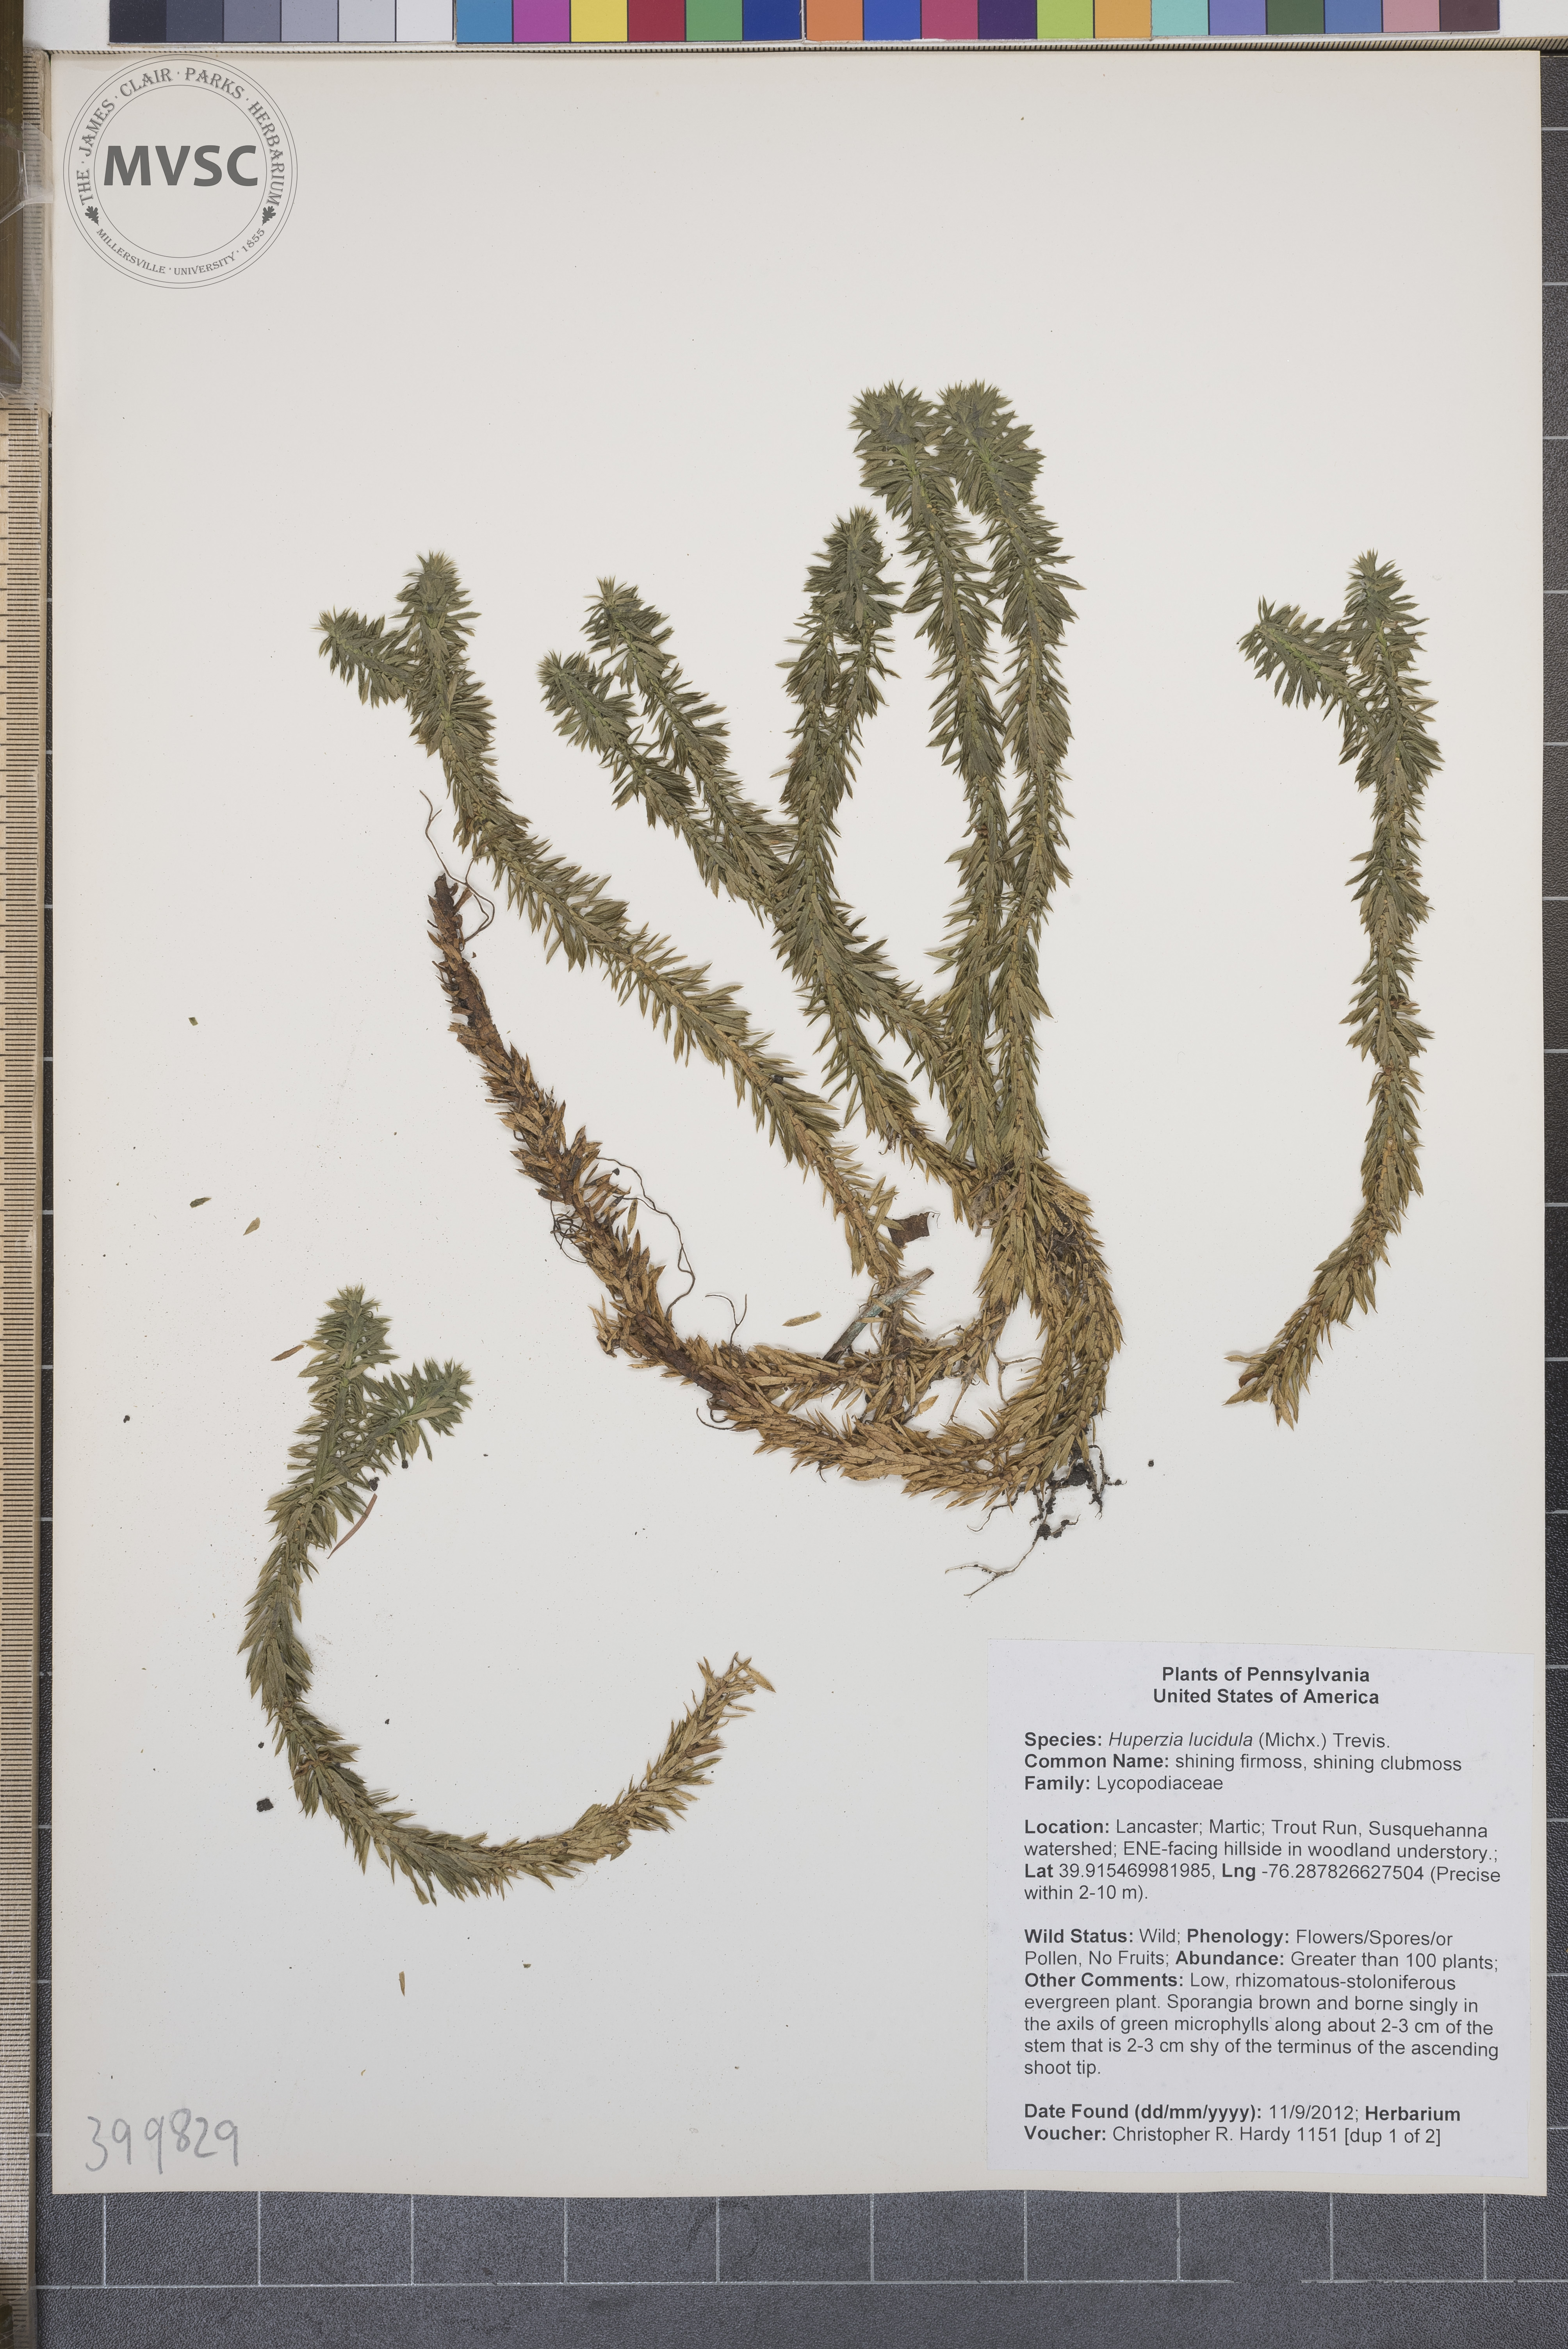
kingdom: Plantae
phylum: Tracheophyta
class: Lycopodiopsida
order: Lycopodiales
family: Lycopodiaceae
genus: Huperzia
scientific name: Huperzia lucidula
